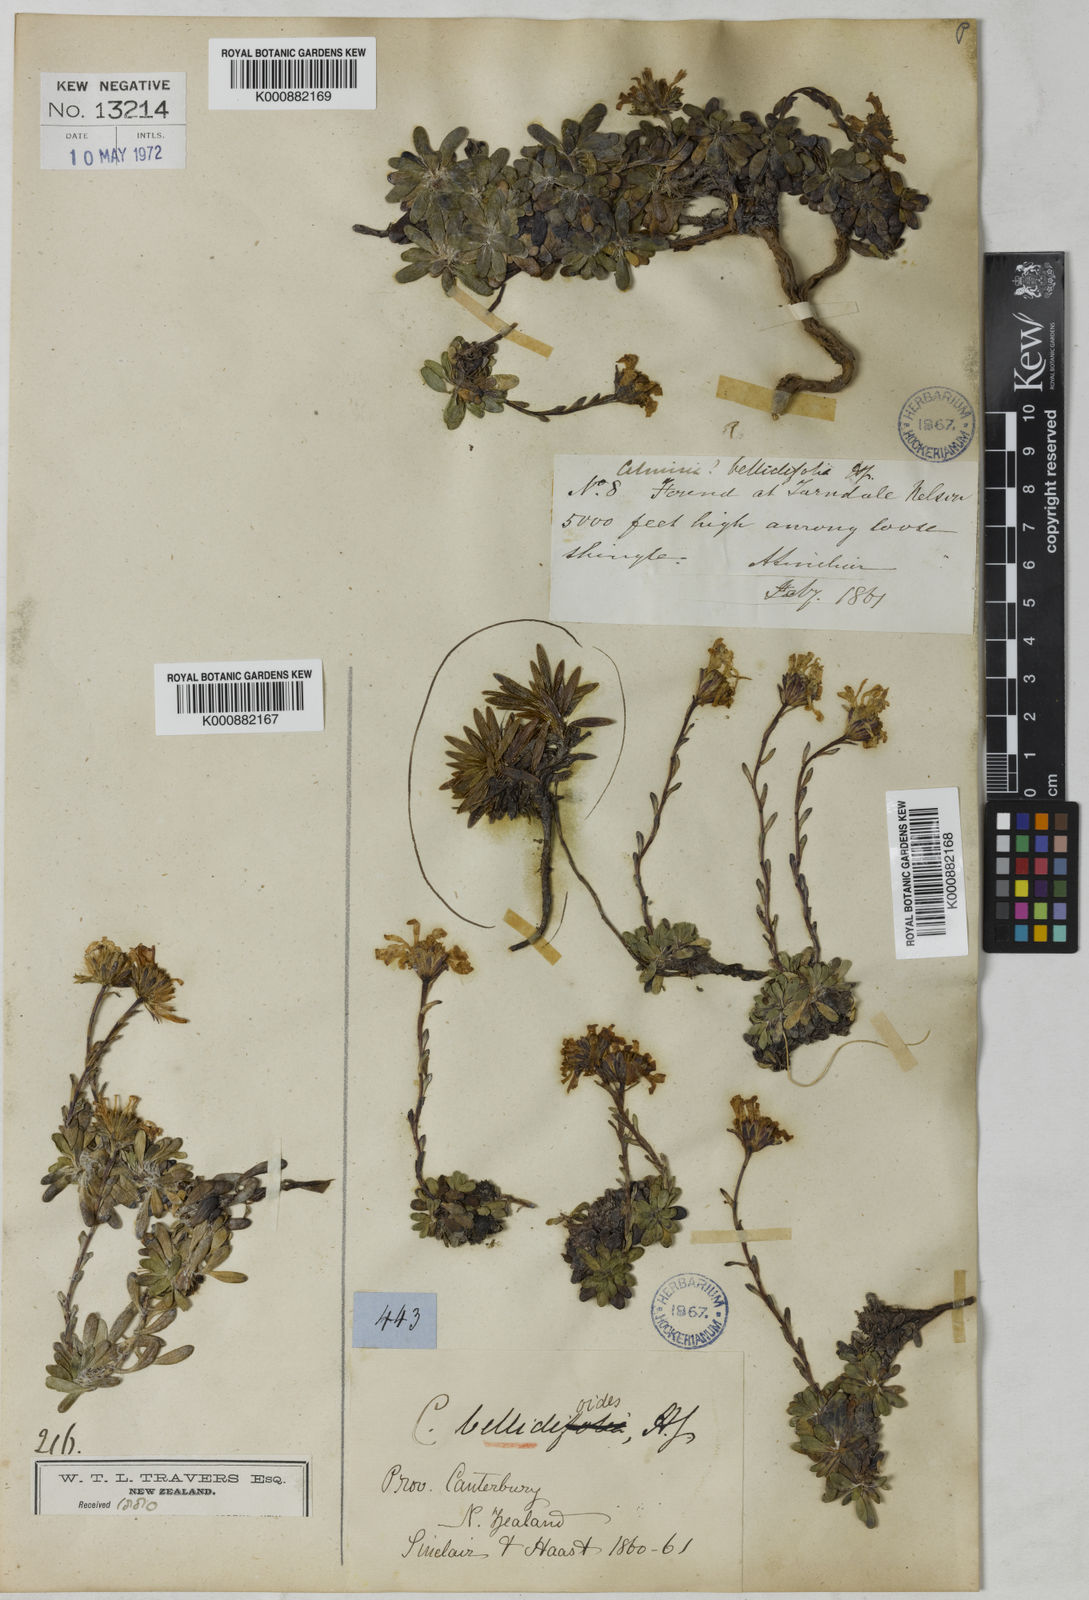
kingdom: Plantae
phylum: Tracheophyta
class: Magnoliopsida
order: Asterales
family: Asteraceae
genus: Celmisia
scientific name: Celmisia bellidioides
